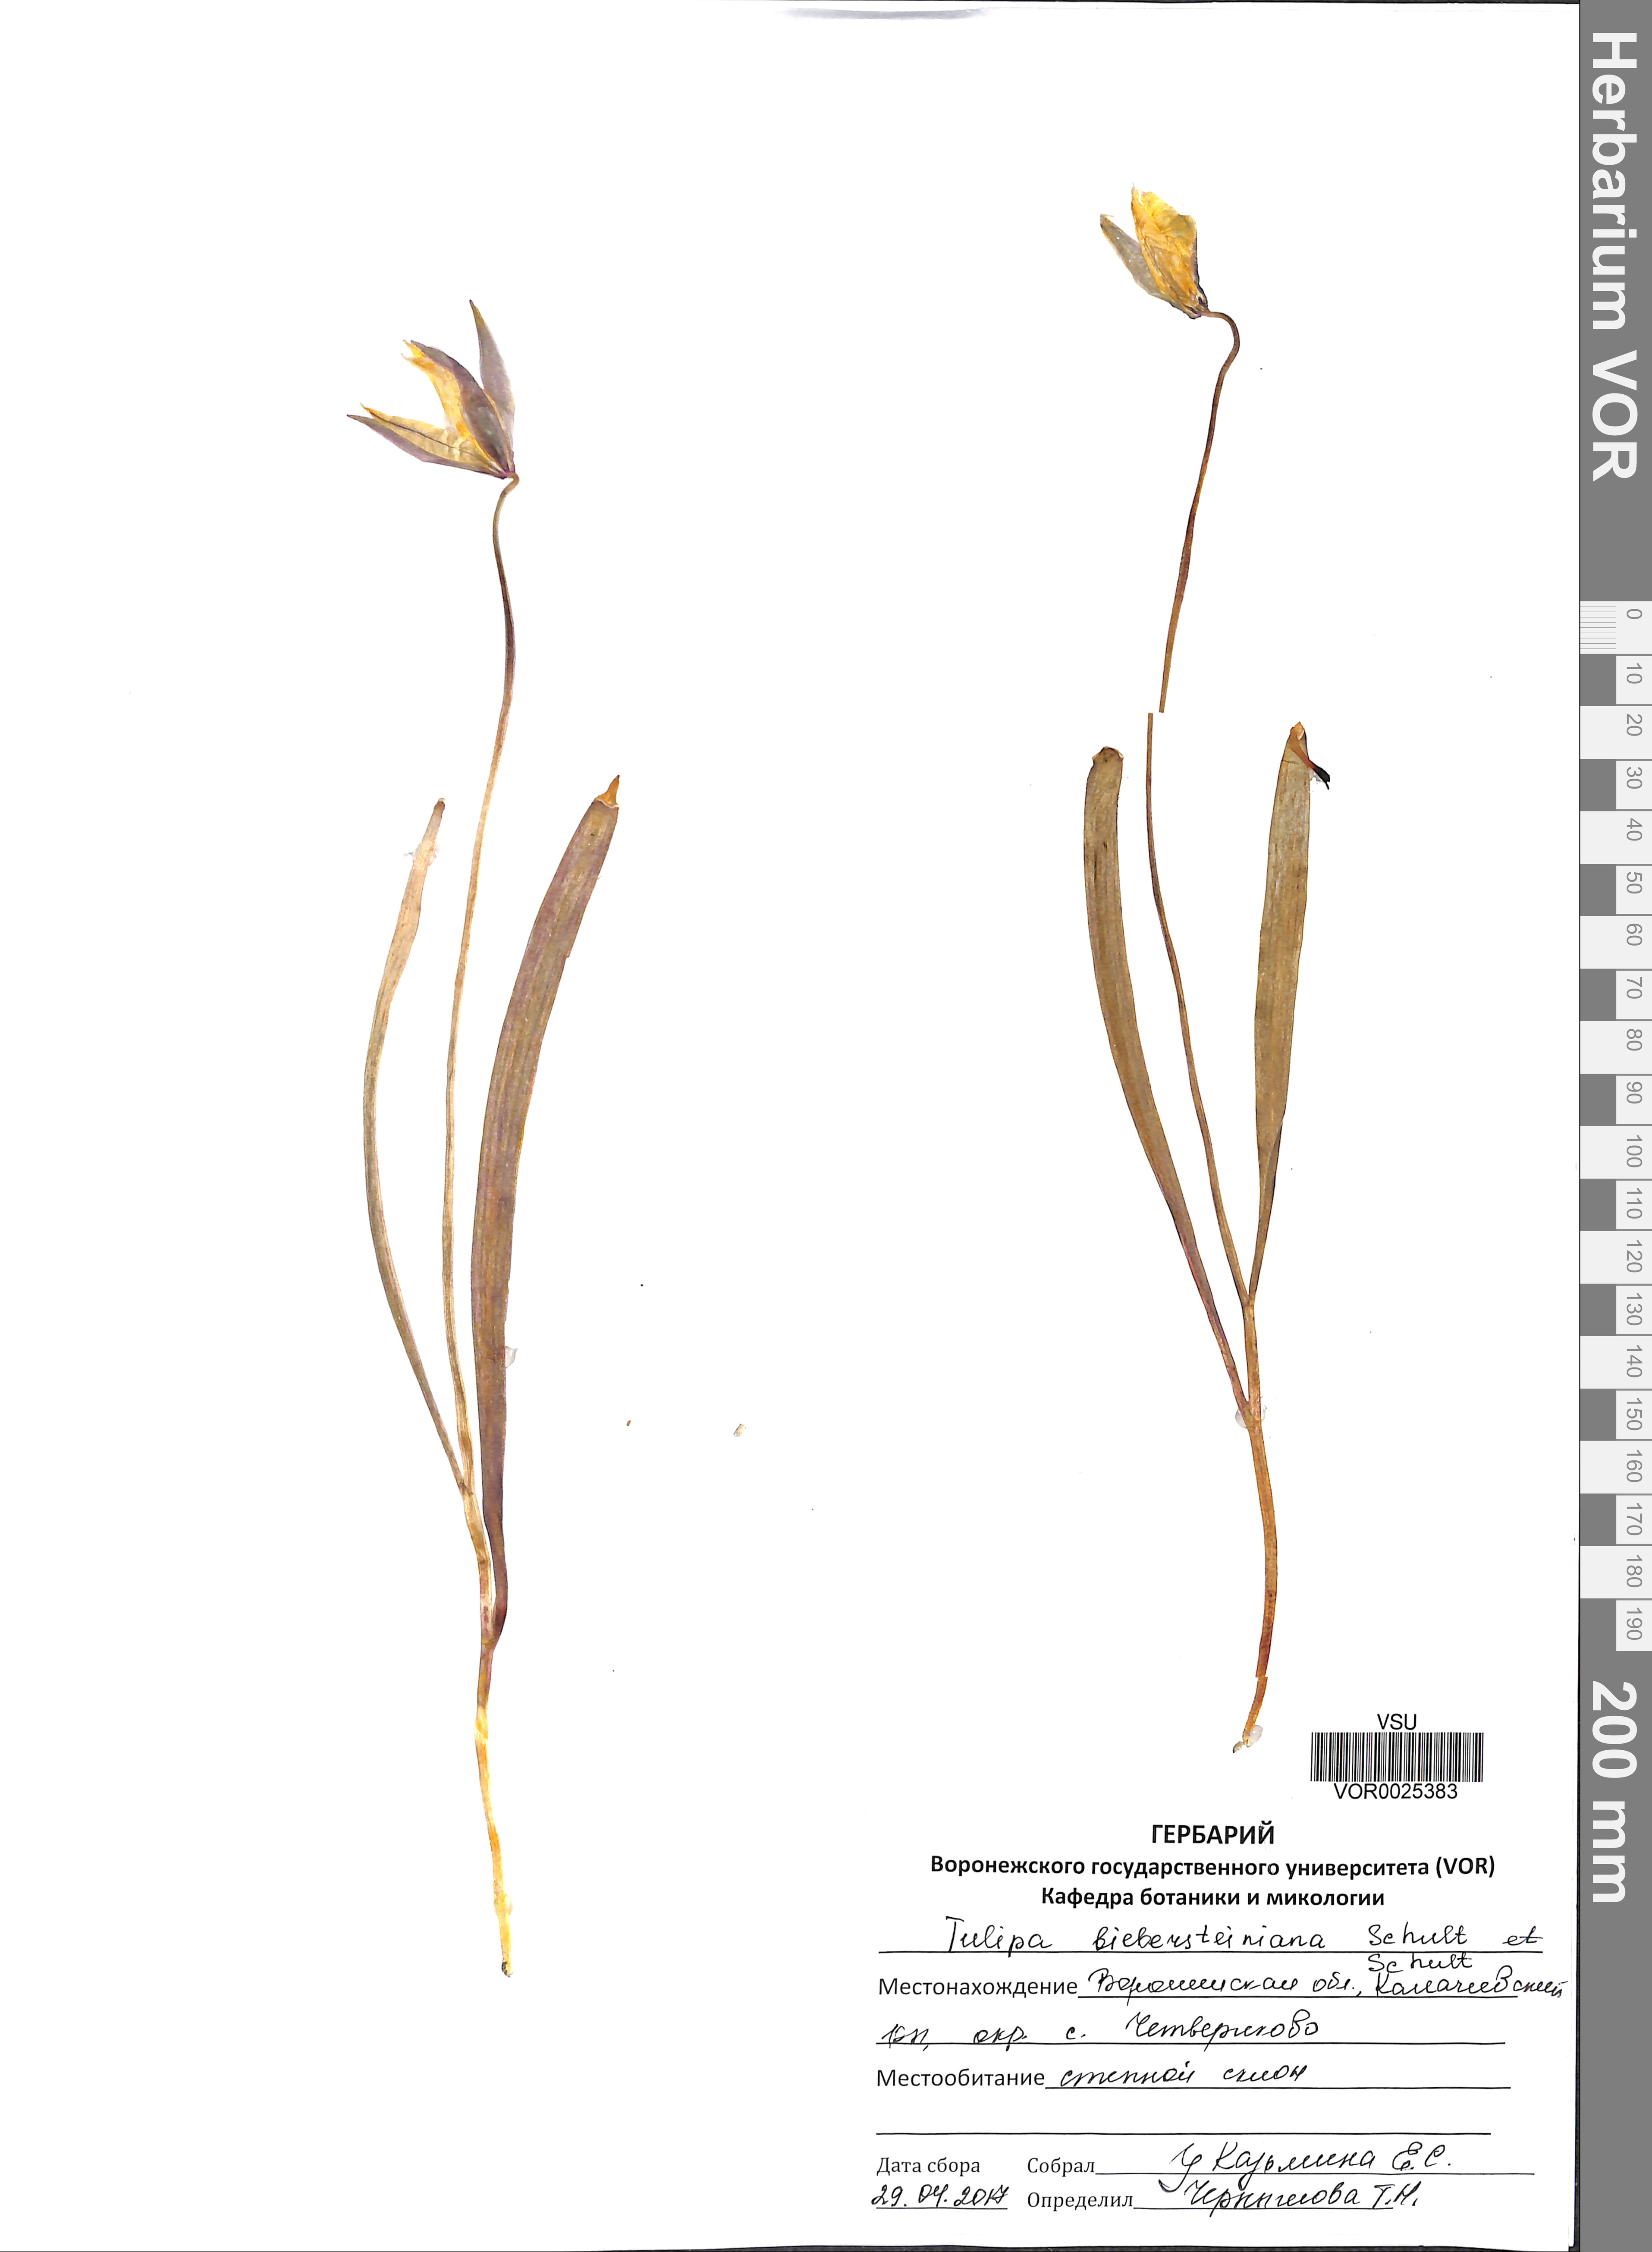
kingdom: Plantae
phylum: Tracheophyta
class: Liliopsida
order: Liliales
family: Liliaceae
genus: Tulipa
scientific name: Tulipa sylvestris
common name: Wild tulip
